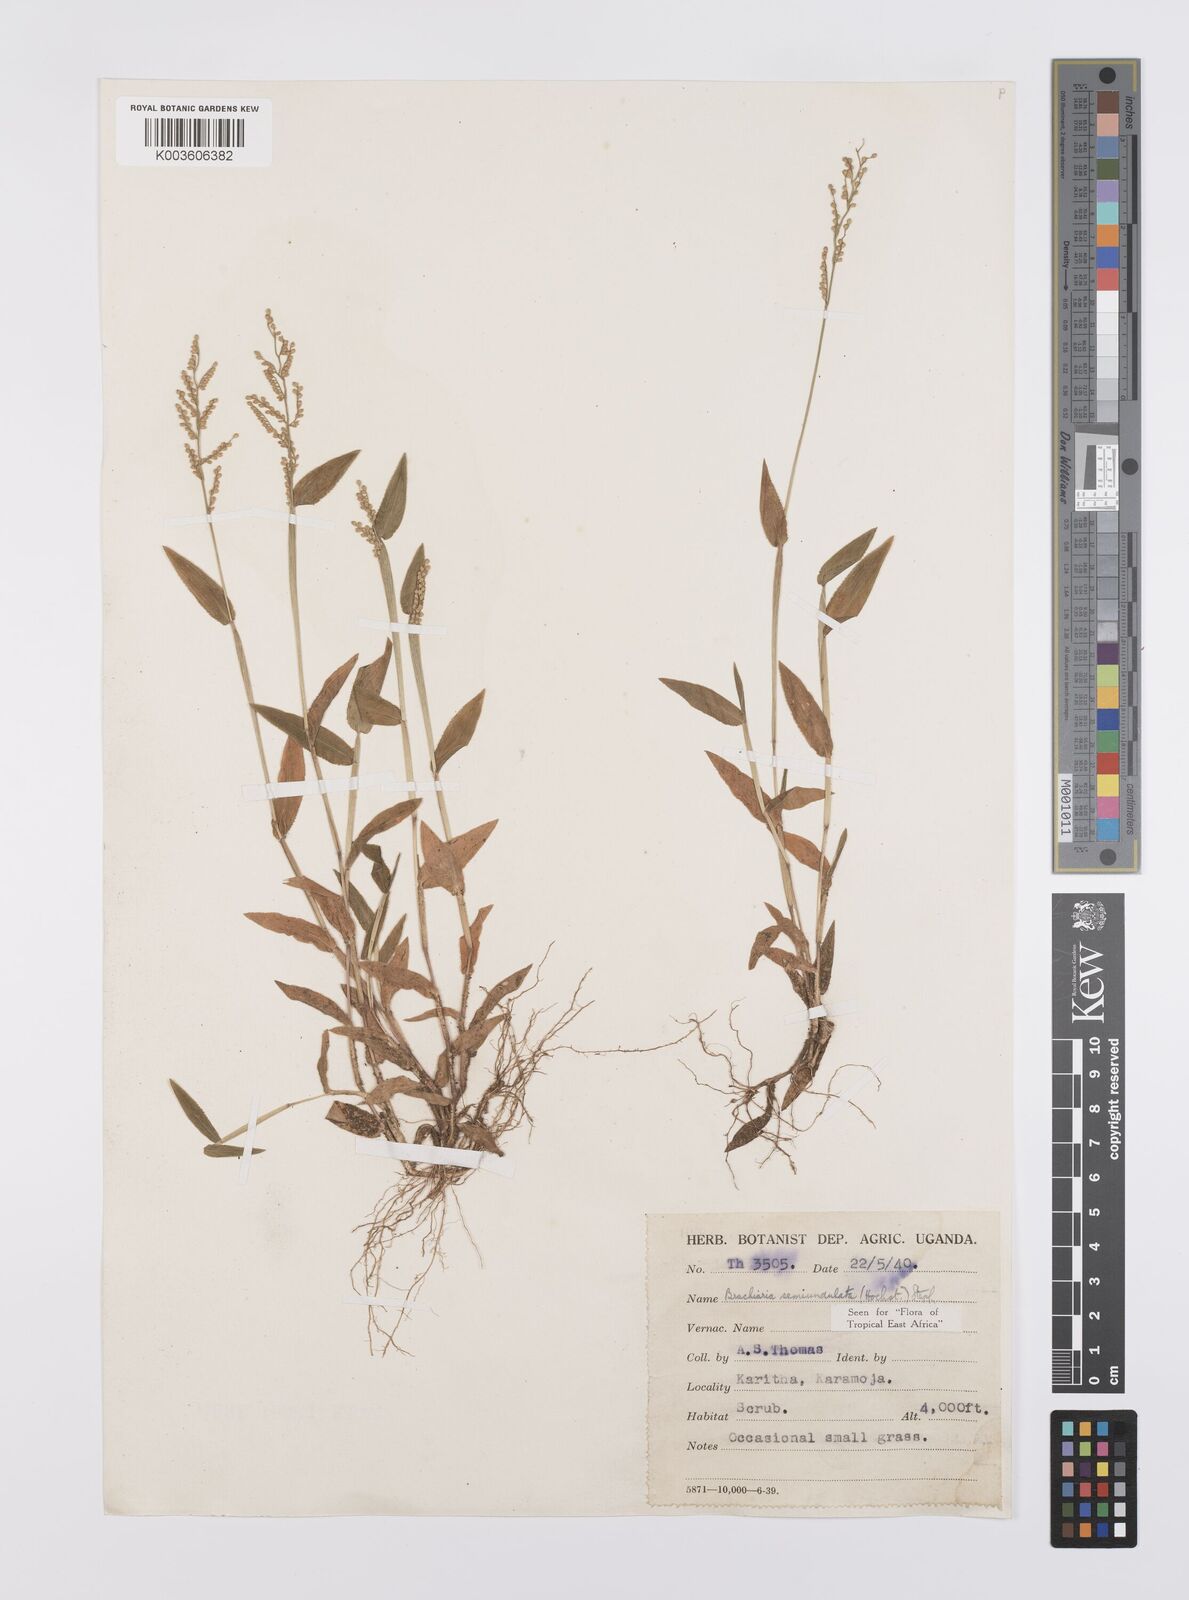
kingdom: Plantae
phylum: Tracheophyta
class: Liliopsida
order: Poales
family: Poaceae
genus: Urochloa
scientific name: Urochloa semiundulata
